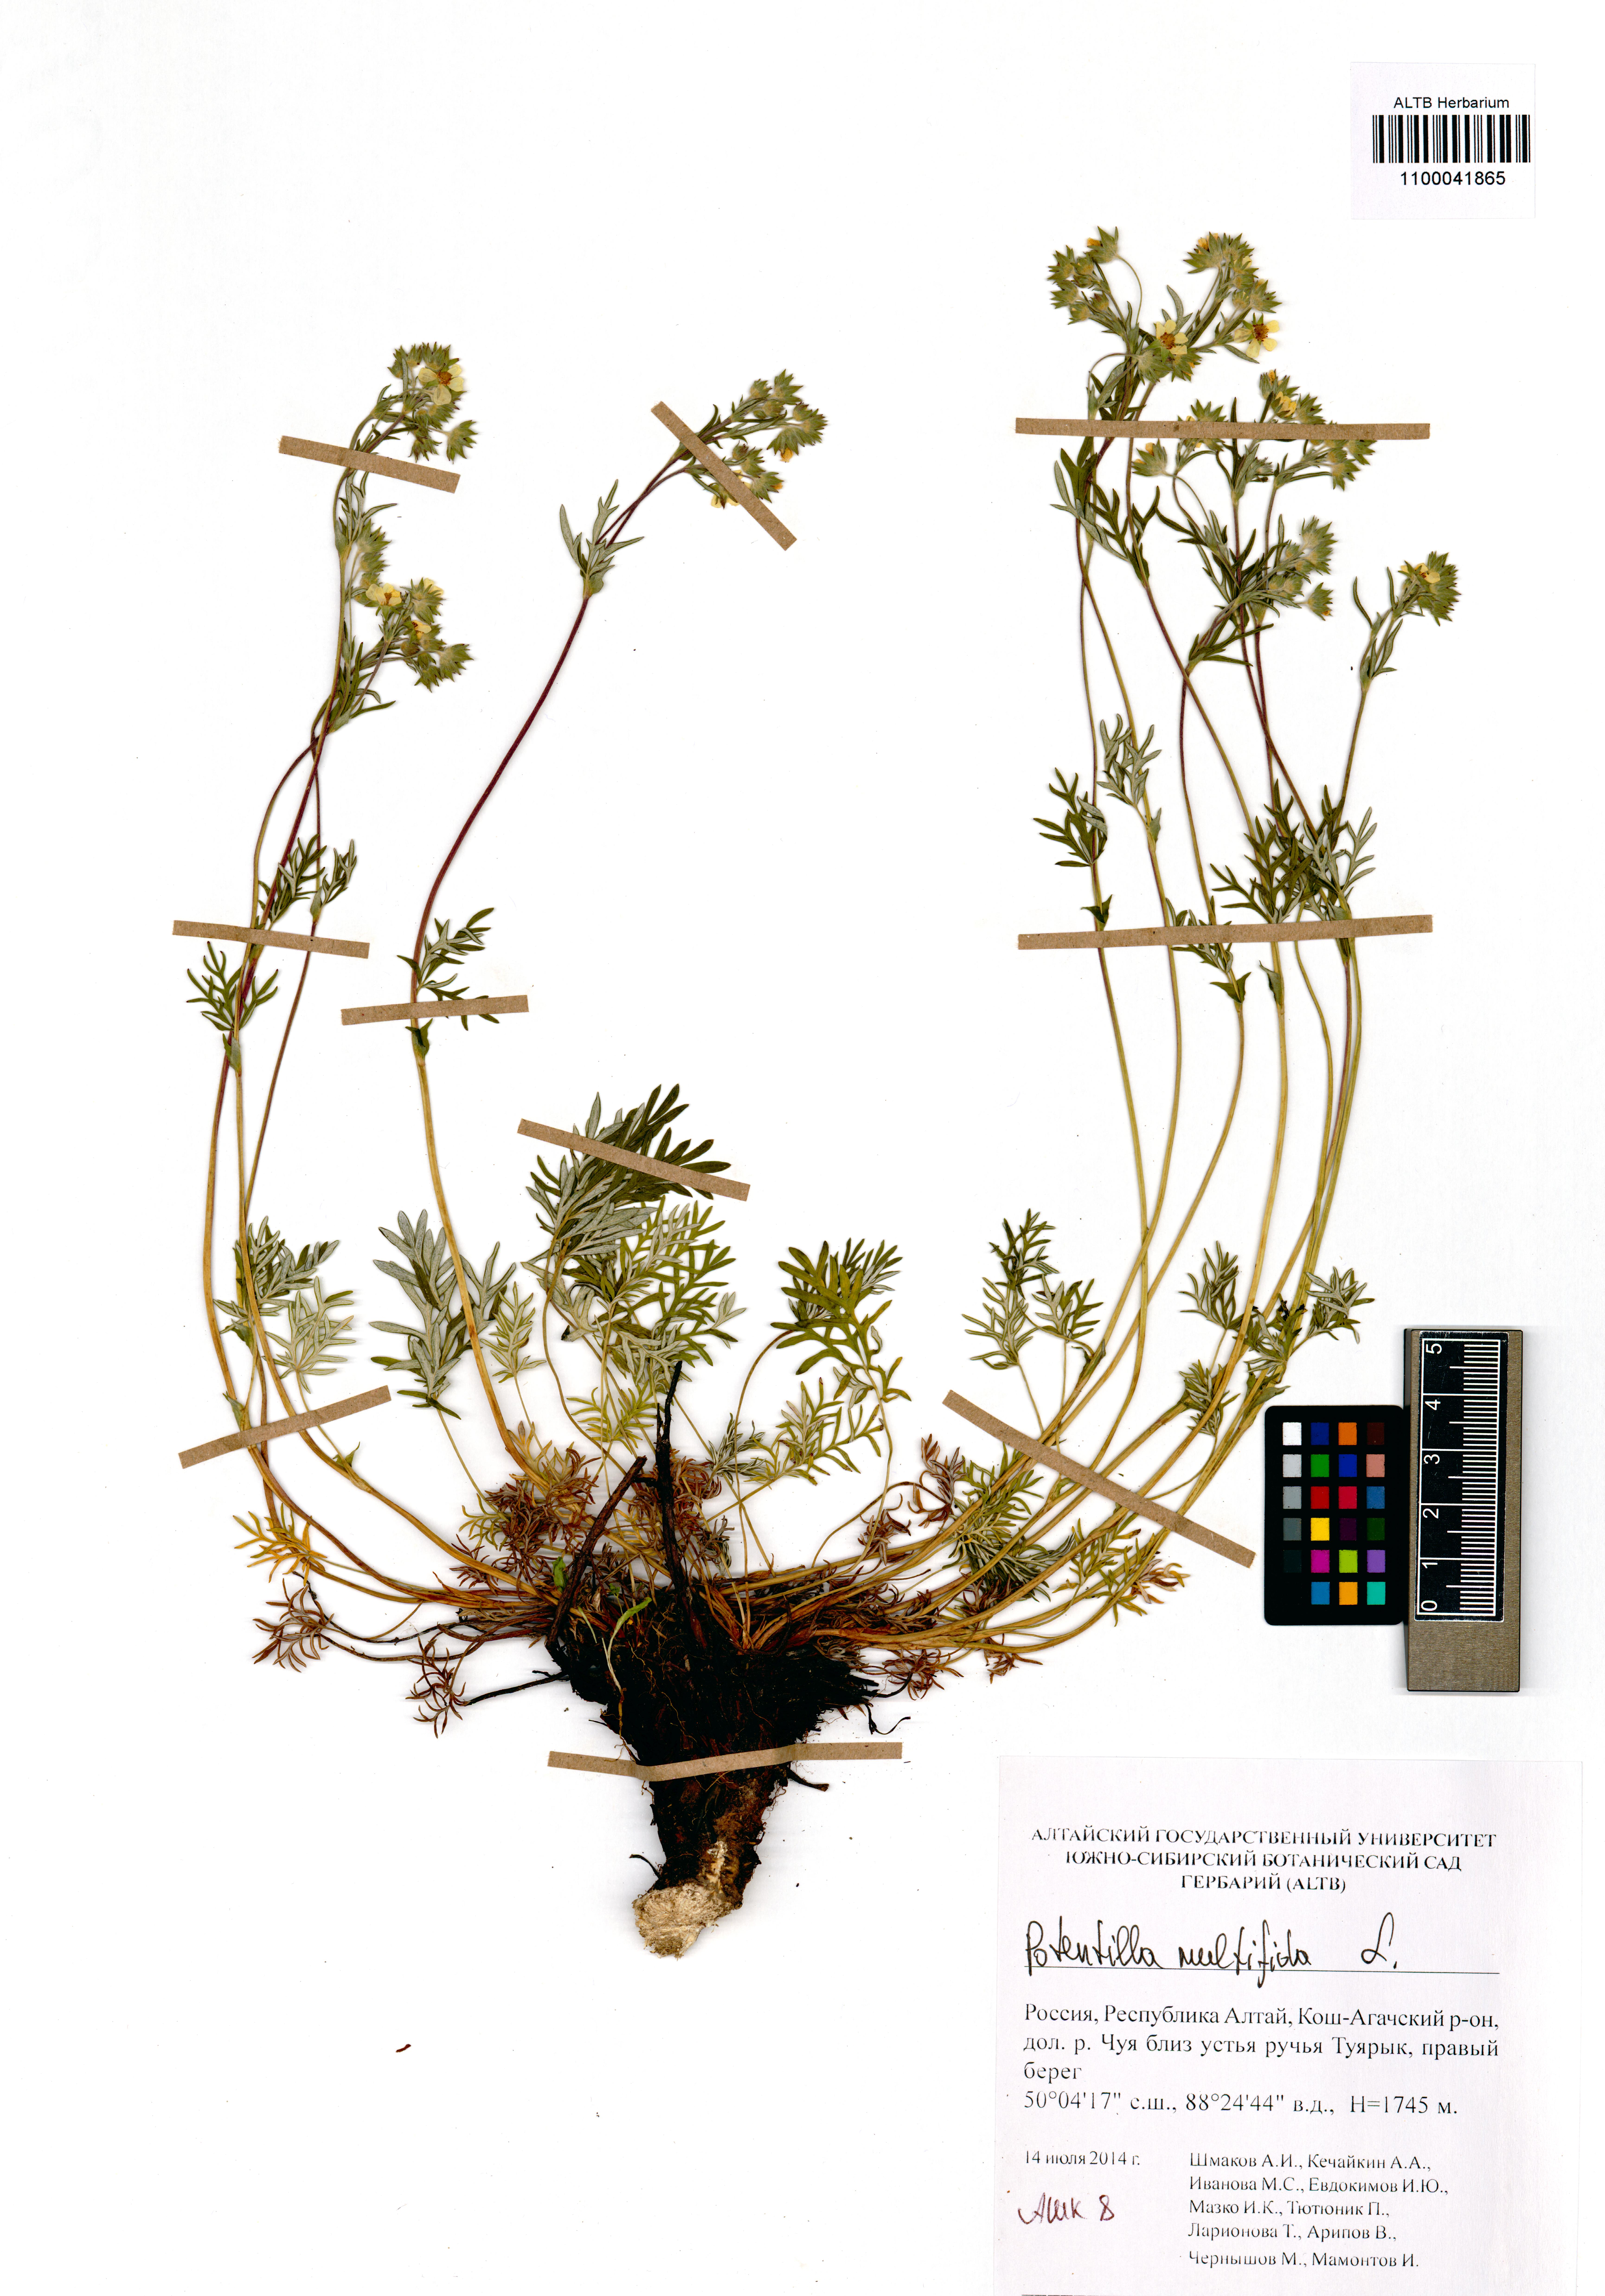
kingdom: Plantae
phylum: Tracheophyta
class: Magnoliopsida
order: Rosales
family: Rosaceae
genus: Potentilla
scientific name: Potentilla multifida
